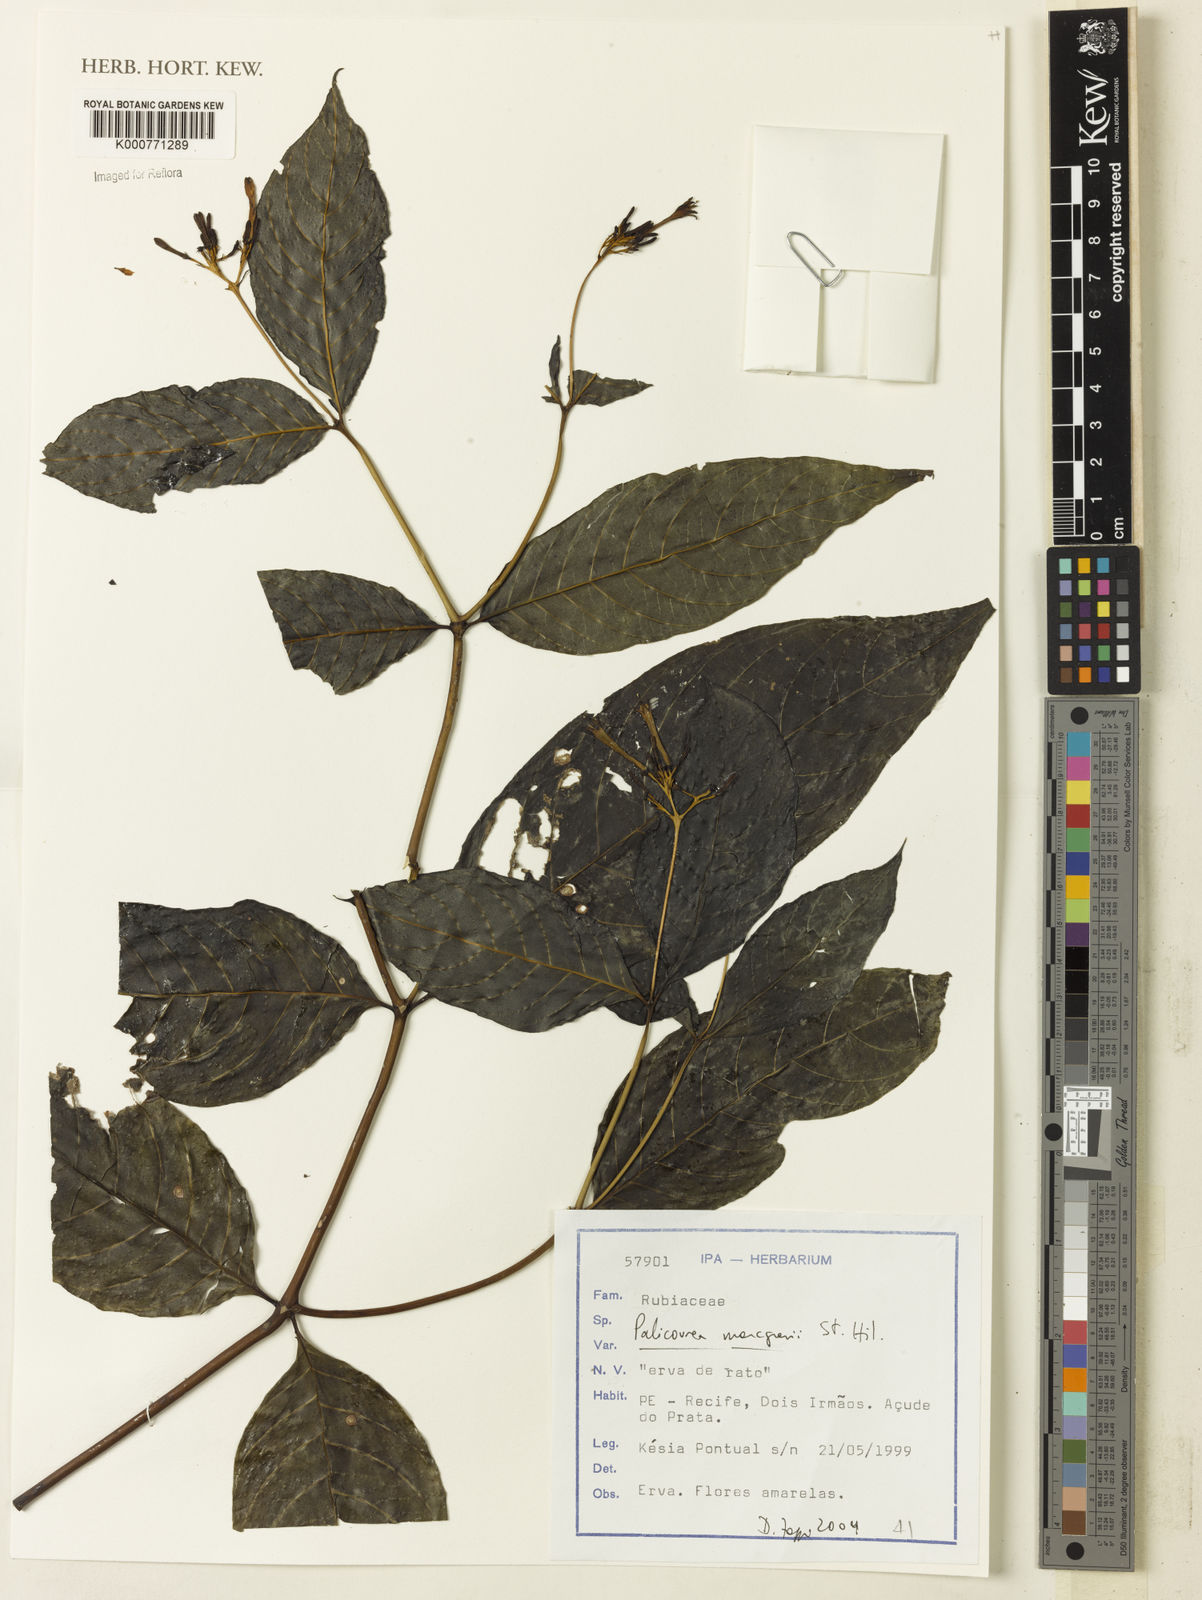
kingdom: Plantae
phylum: Tracheophyta
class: Magnoliopsida
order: Gentianales
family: Rubiaceae
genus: Palicourea
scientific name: Palicourea marcgravii
